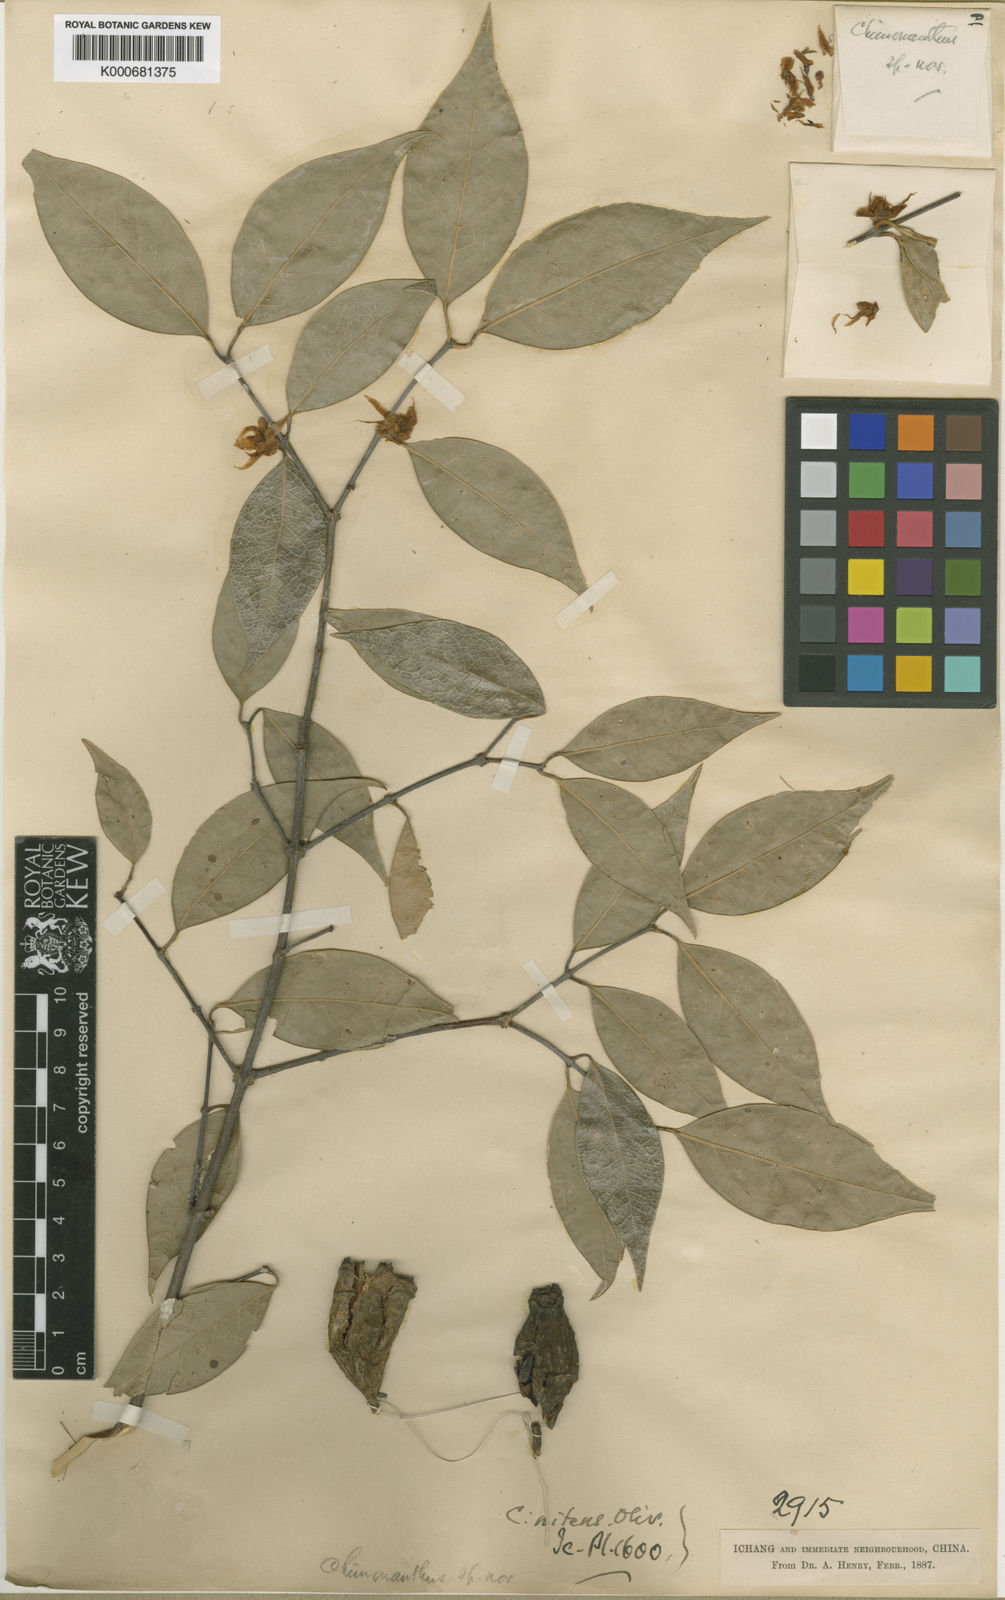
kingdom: Plantae
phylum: Tracheophyta
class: Magnoliopsida
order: Laurales
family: Calycanthaceae
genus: Chimonanthus
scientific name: Chimonanthus nitens
